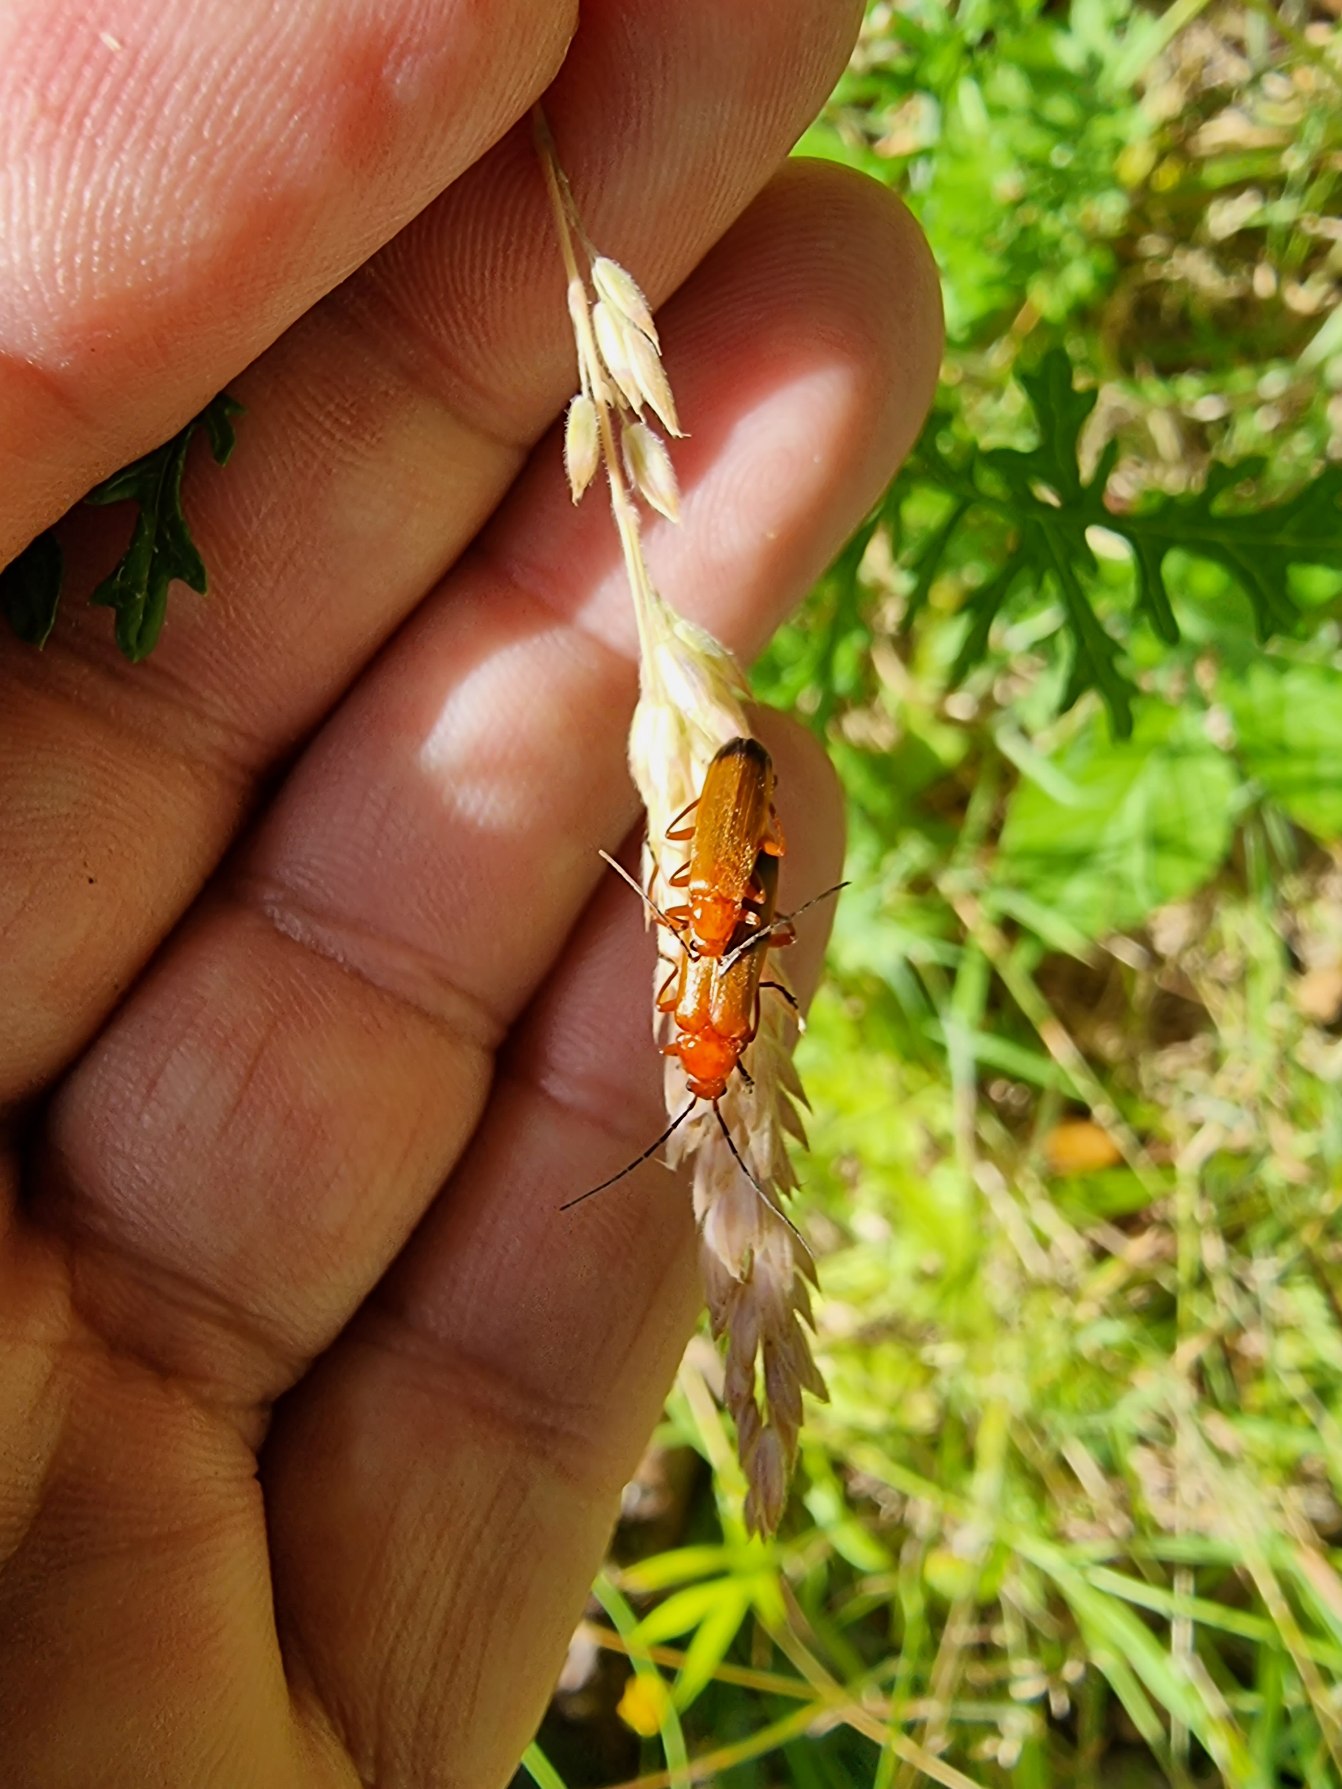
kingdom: Animalia
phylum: Arthropoda
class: Insecta
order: Coleoptera
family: Cantharidae
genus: Rhagonycha
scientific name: Rhagonycha fulva
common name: Præstebille
